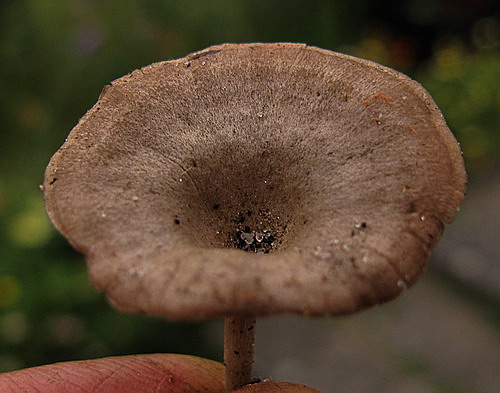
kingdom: Fungi
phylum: Basidiomycota
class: Agaricomycetes
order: Agaricales
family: Entolomataceae
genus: Entoloma
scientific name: Entoloma undatum
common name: bæltet rødblad
